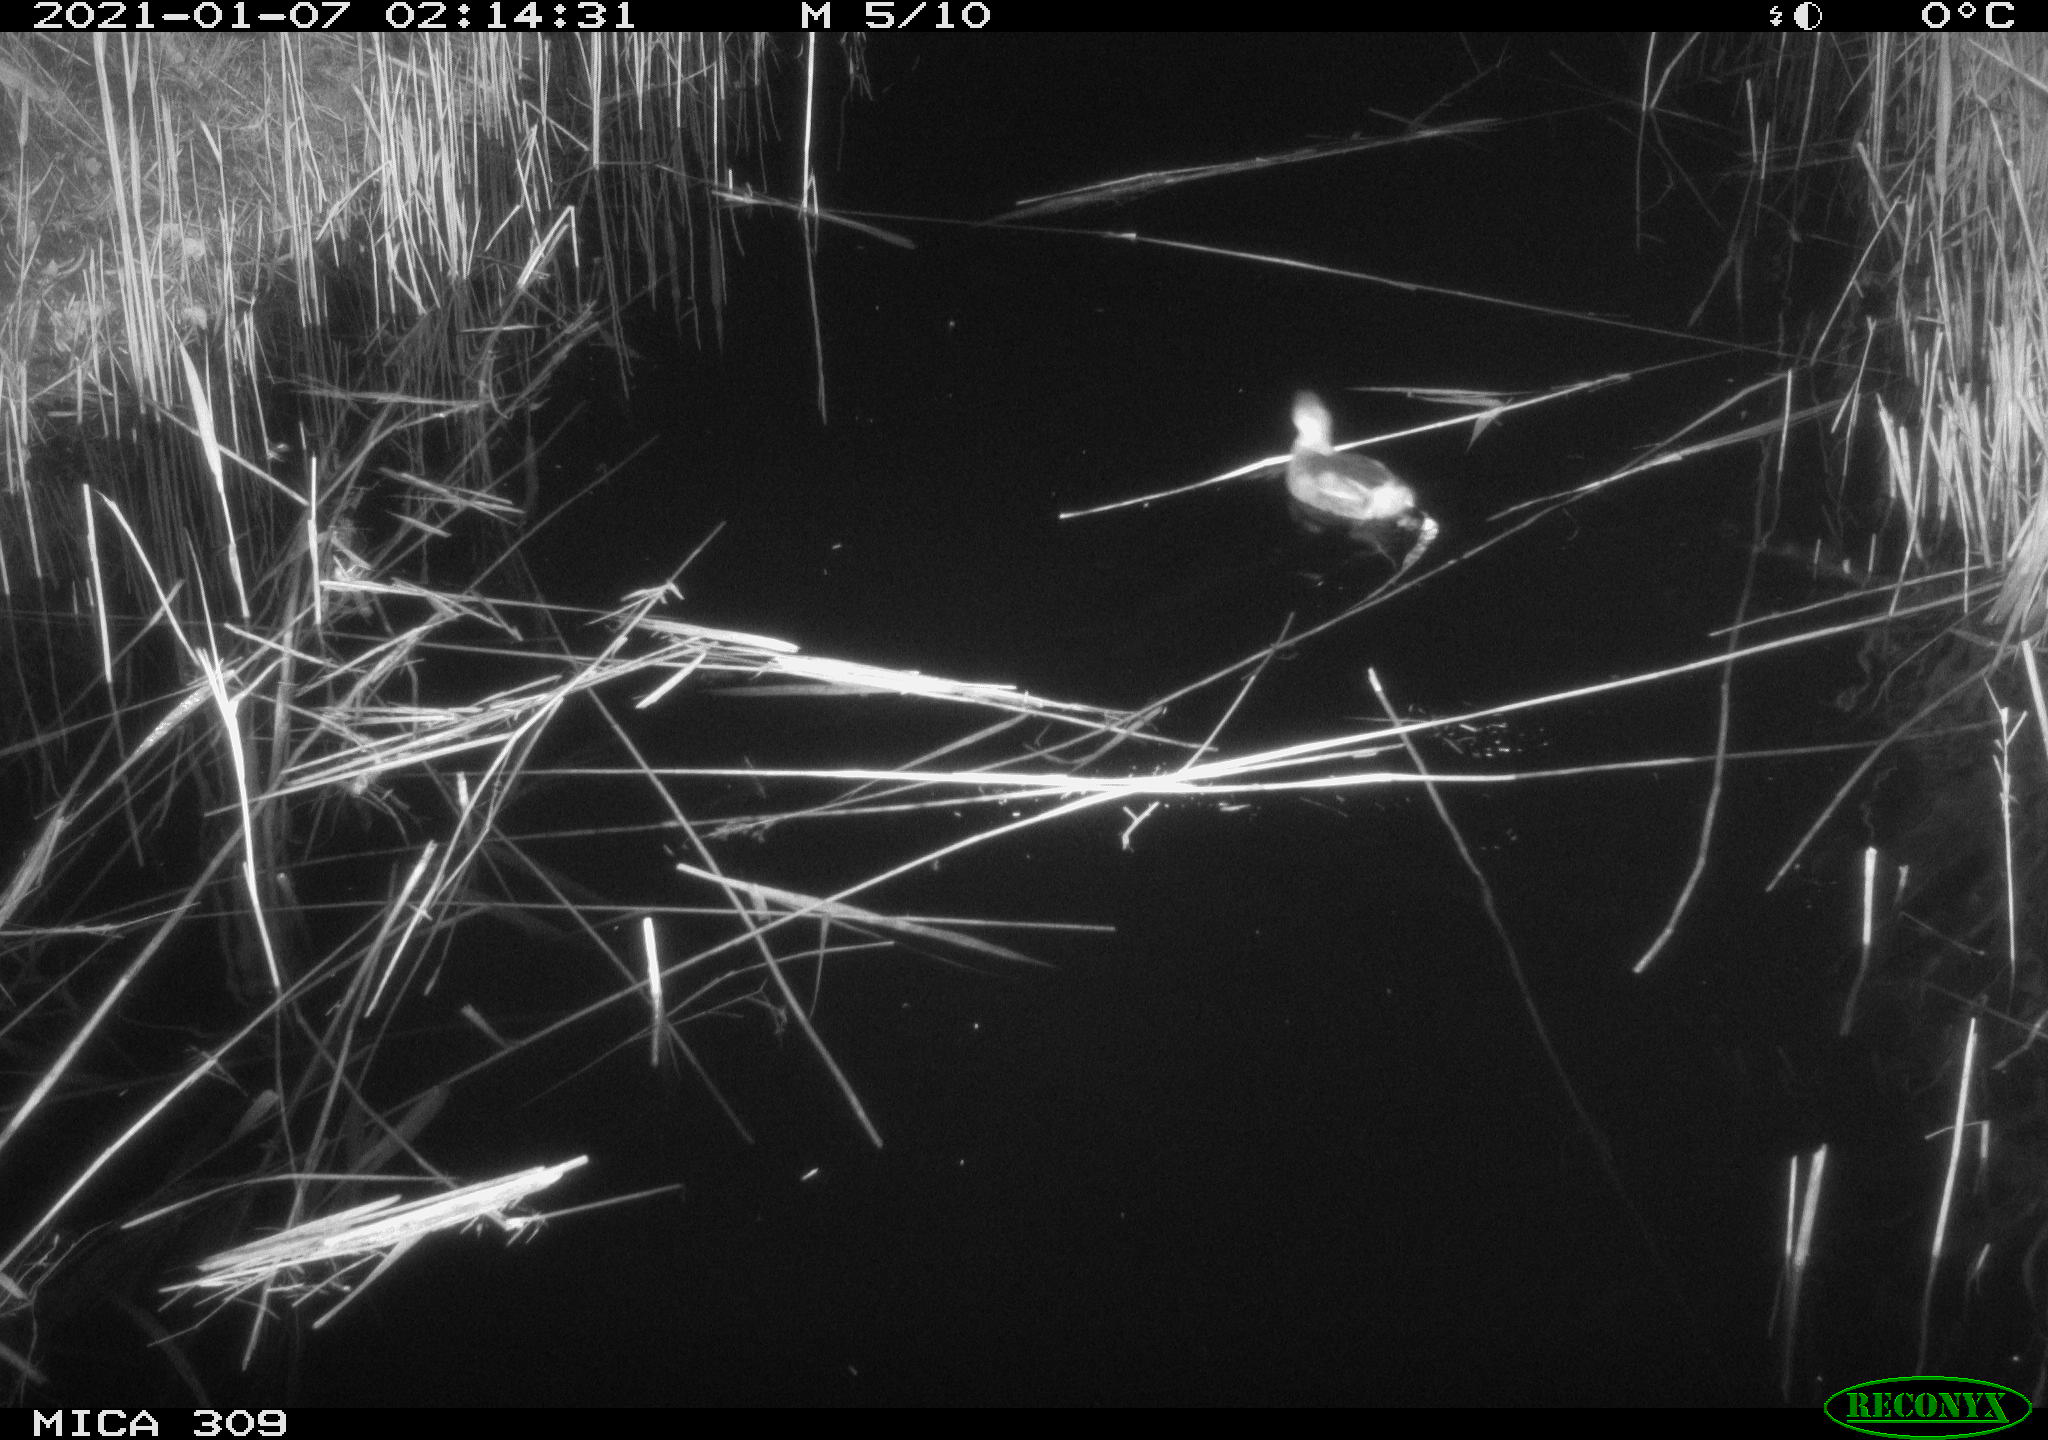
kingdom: Animalia
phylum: Chordata
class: Aves
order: Podicipediformes
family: Podicipedidae
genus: Tachybaptus
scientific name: Tachybaptus ruficollis
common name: Little grebe
